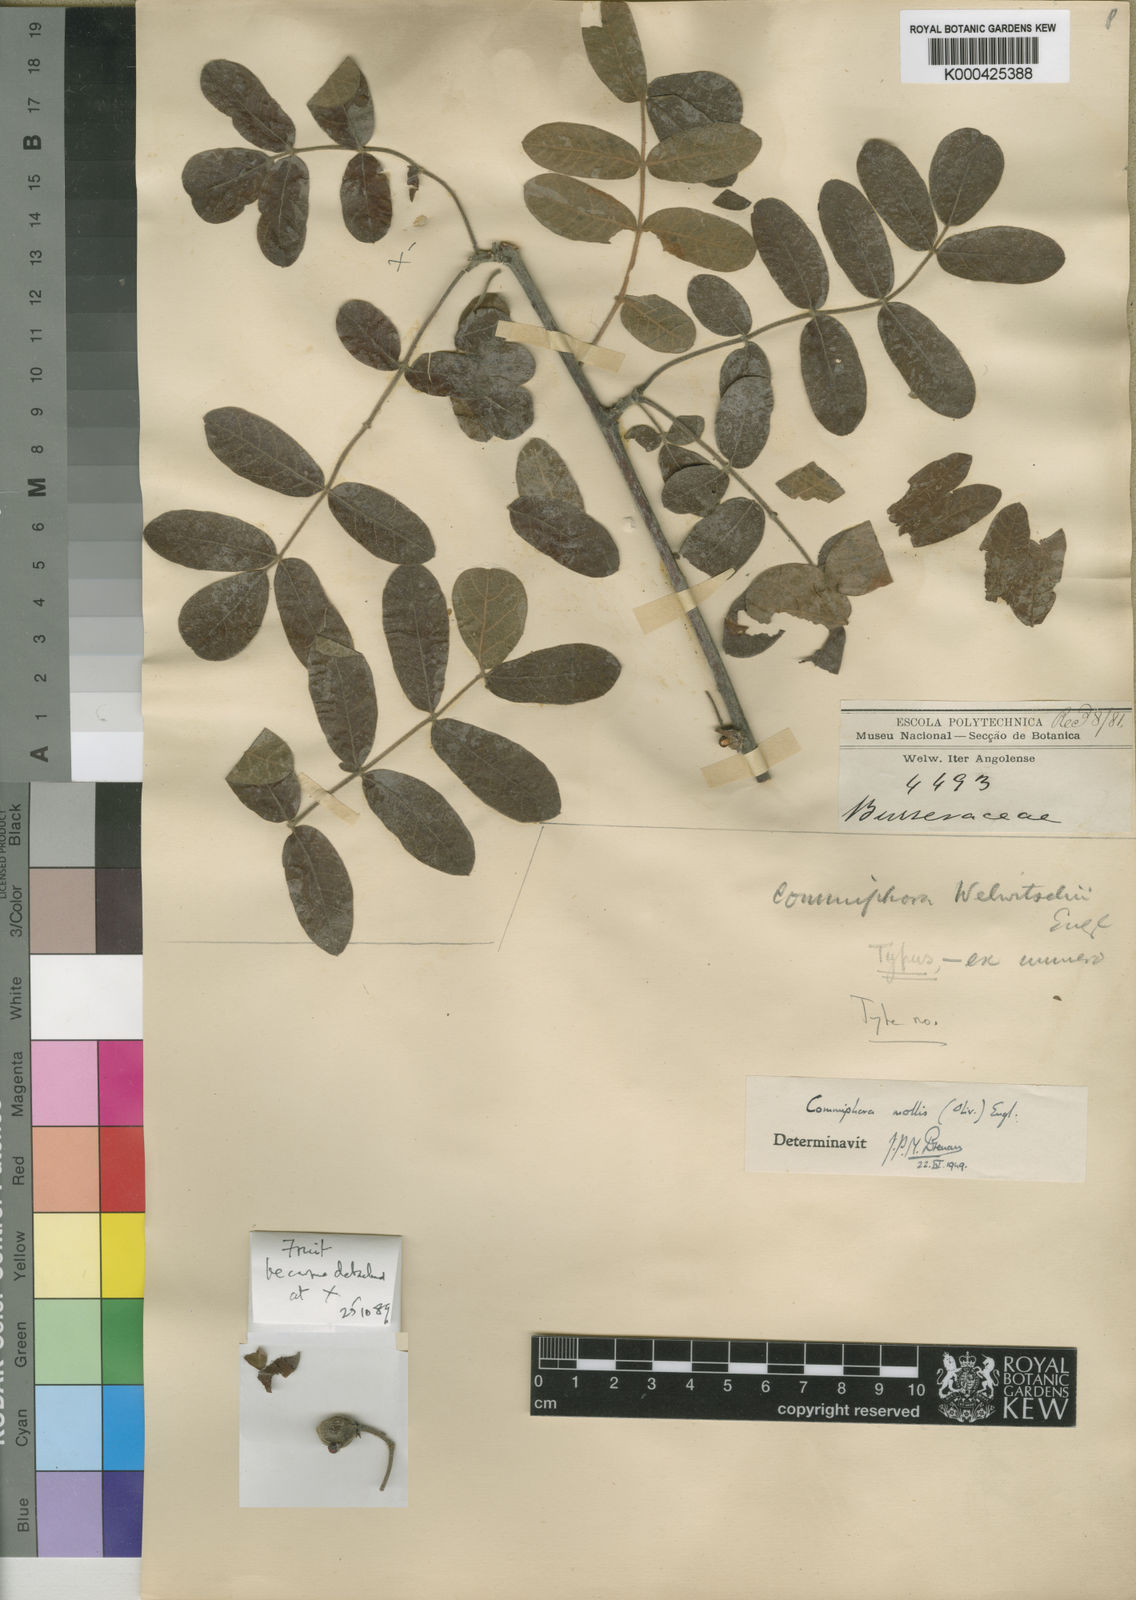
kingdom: Plantae
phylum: Tracheophyta
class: Magnoliopsida
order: Sapindales
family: Burseraceae
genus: Commiphora
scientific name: Commiphora mollis
